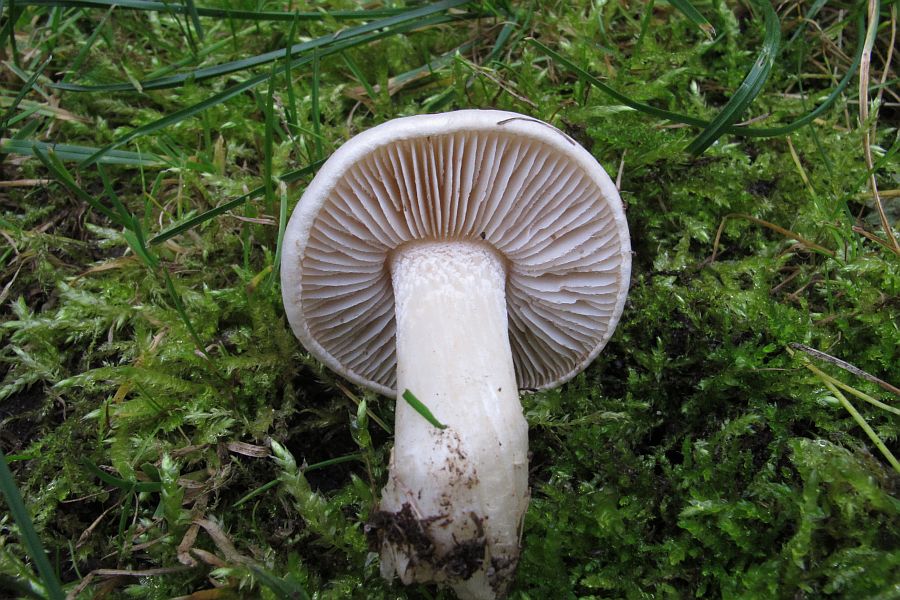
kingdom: Fungi
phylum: Basidiomycota
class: Agaricomycetes
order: Agaricales
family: Hymenogastraceae
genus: Hebeloma
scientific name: Hebeloma crustuliniforme
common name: almindelig tåreblad
